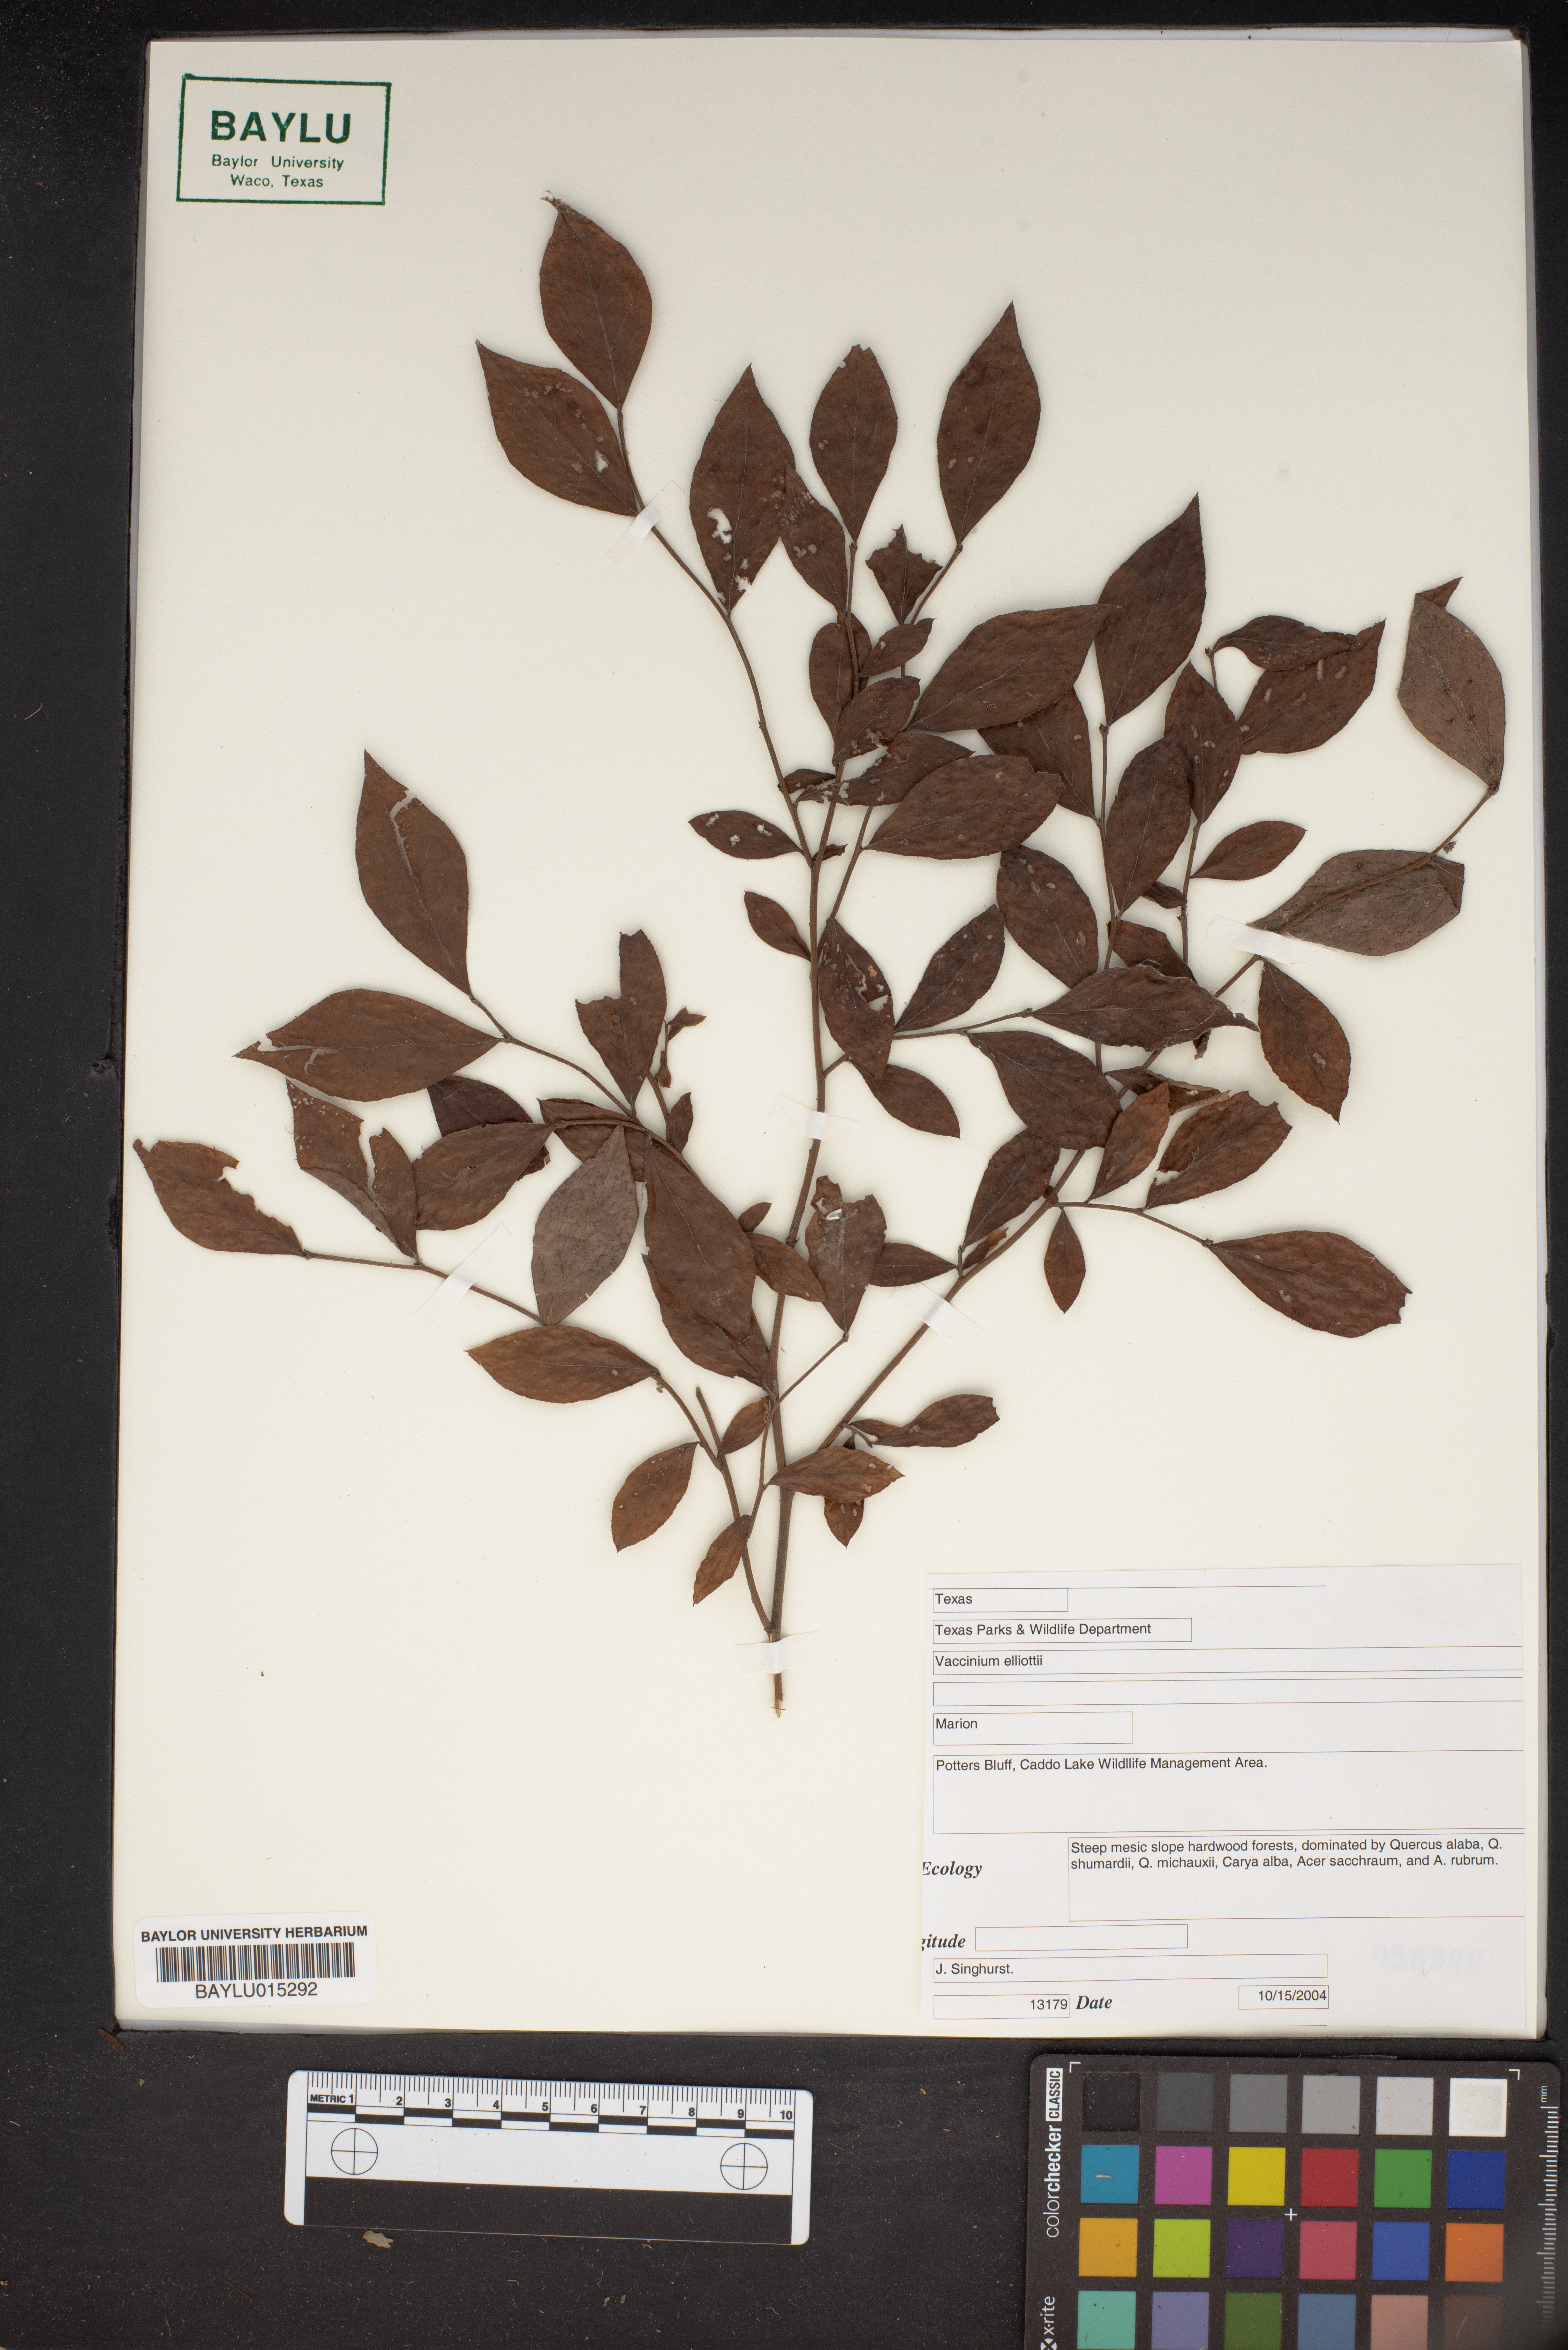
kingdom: Plantae
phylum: Tracheophyta
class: Magnoliopsida
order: Ericales
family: Ericaceae
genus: Vaccinium
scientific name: Vaccinium corymbosum
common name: Blueberry
